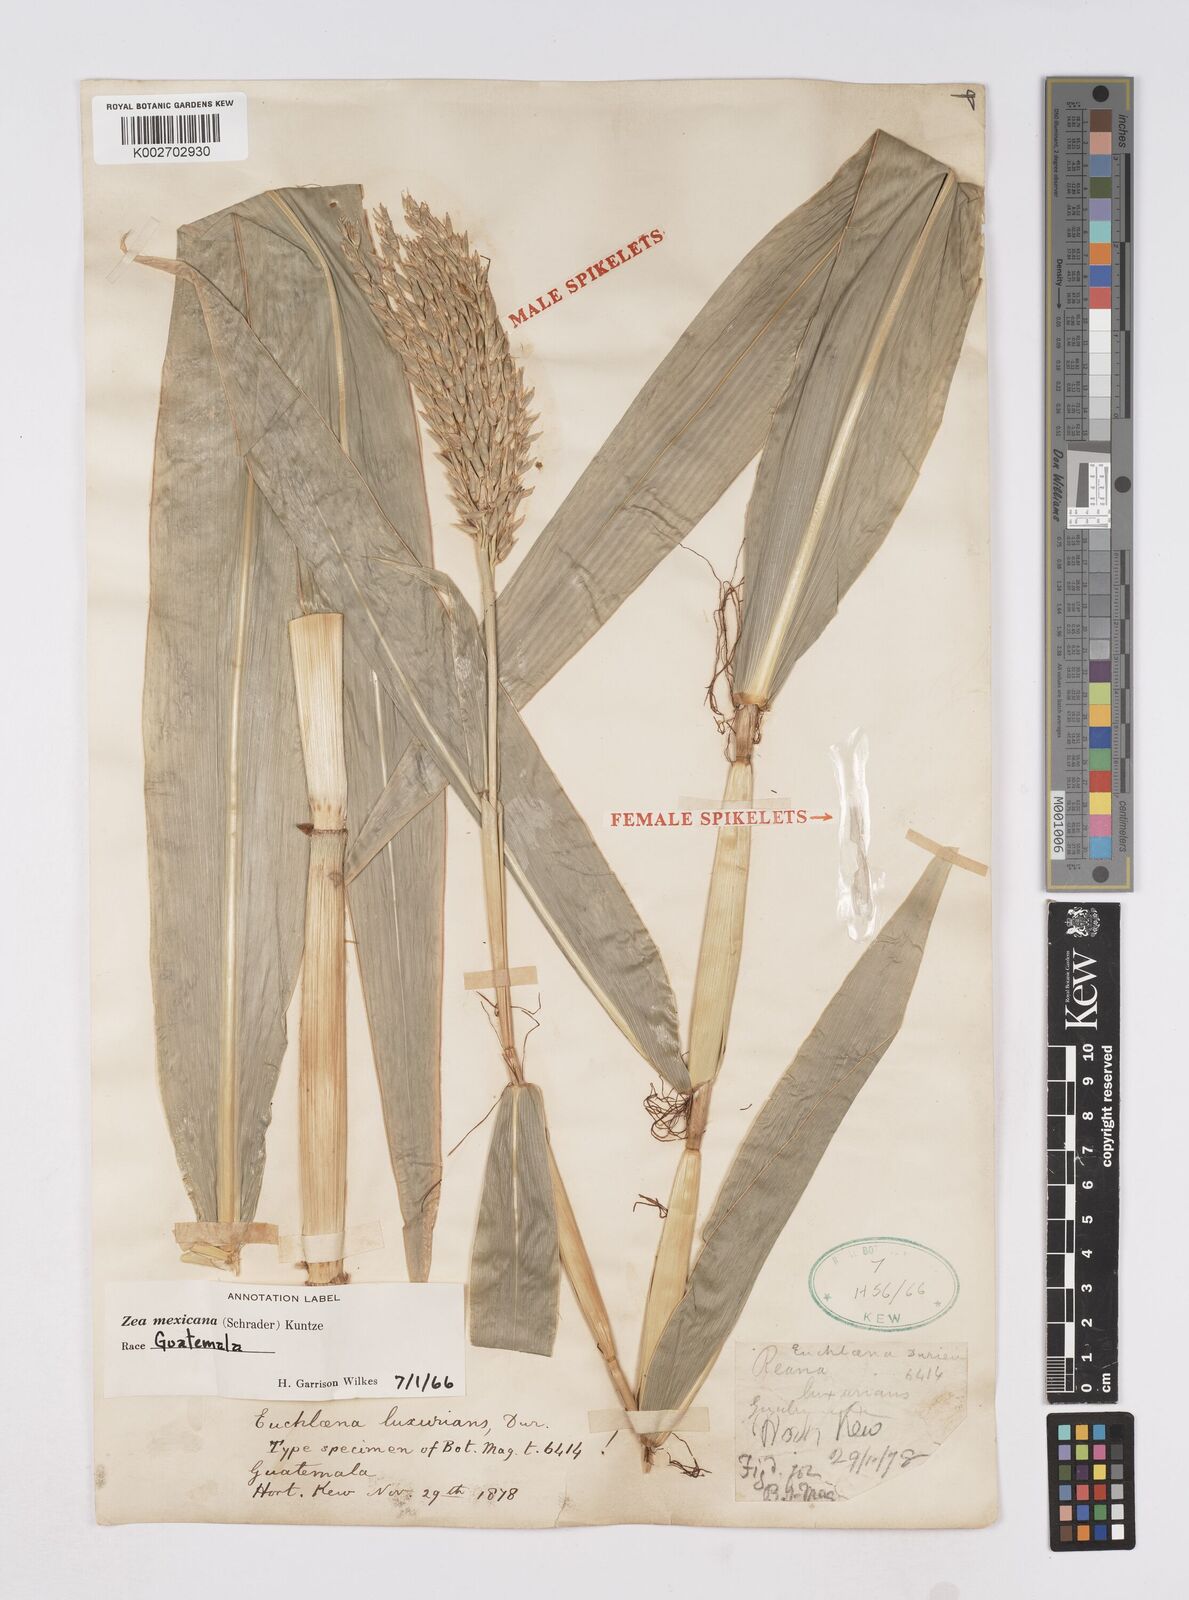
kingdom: Plantae
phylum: Tracheophyta
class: Liliopsida
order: Poales
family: Poaceae
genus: Zea
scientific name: Zea mexicana
